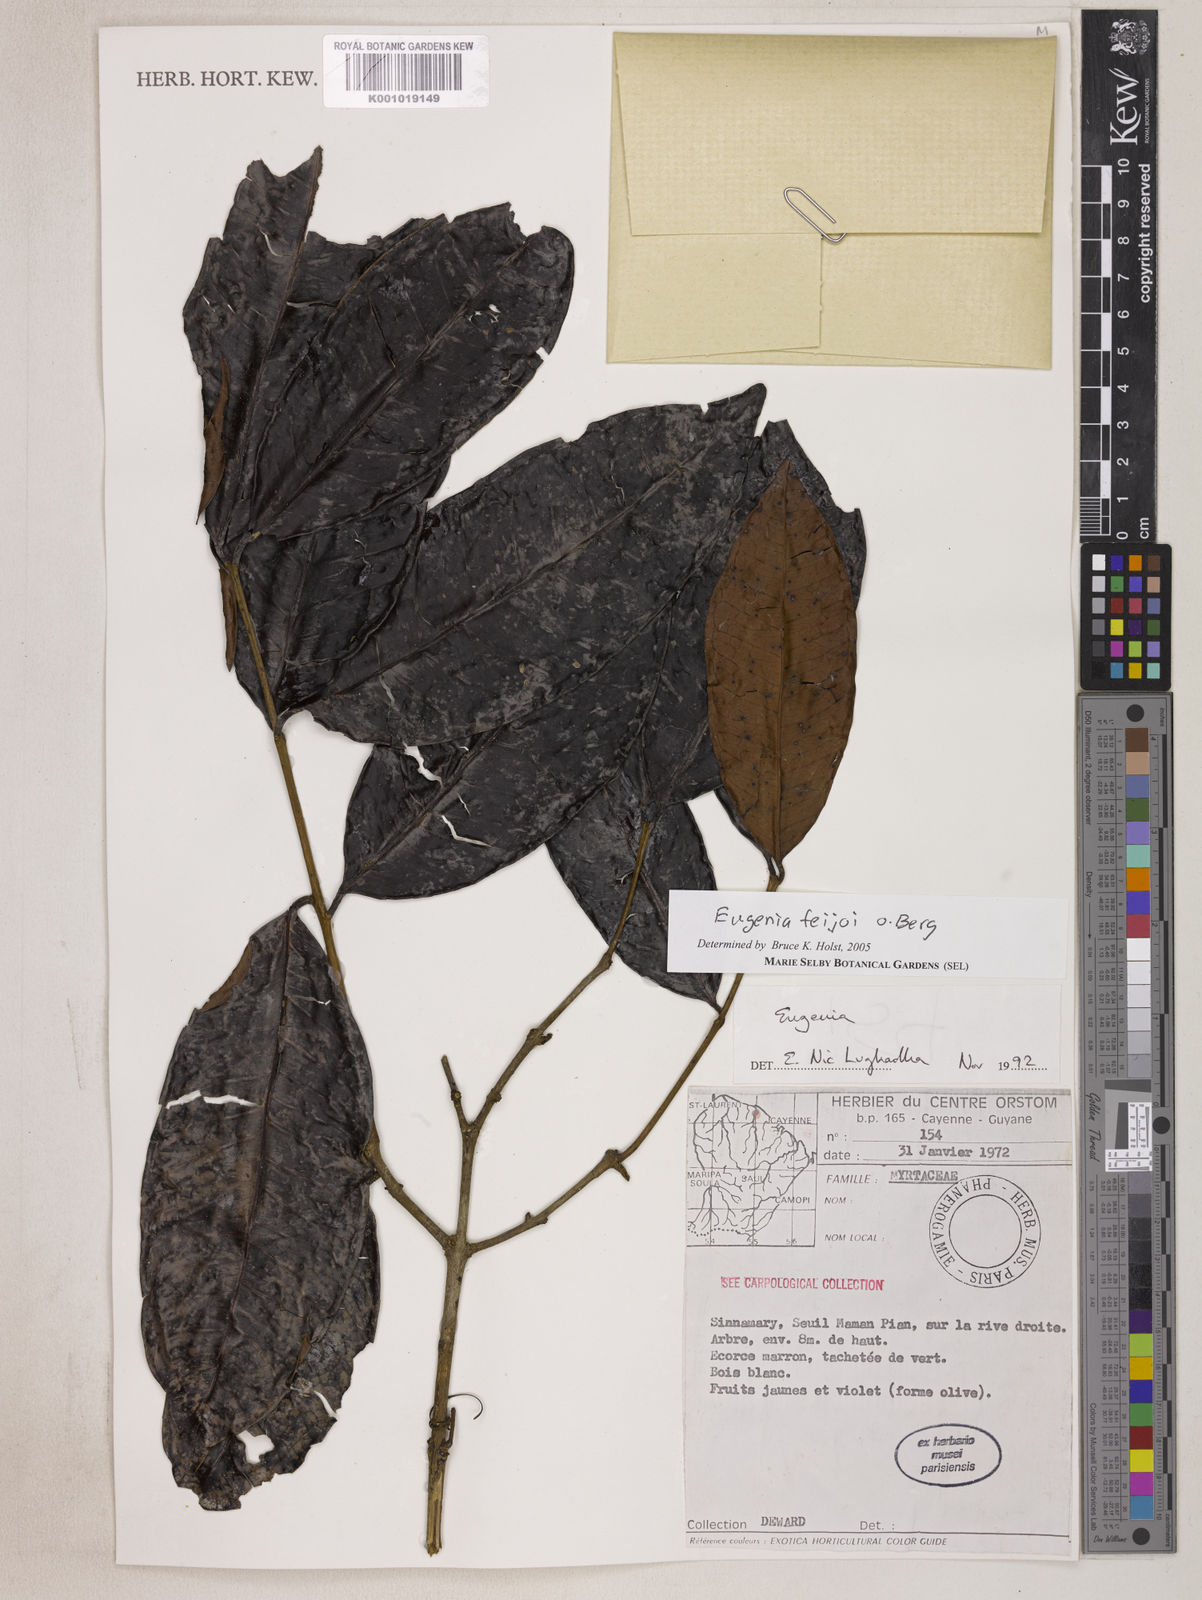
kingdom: Plantae
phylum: Tracheophyta
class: Magnoliopsida
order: Myrtales
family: Myrtaceae
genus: Eugenia
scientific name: Eugenia moschata
